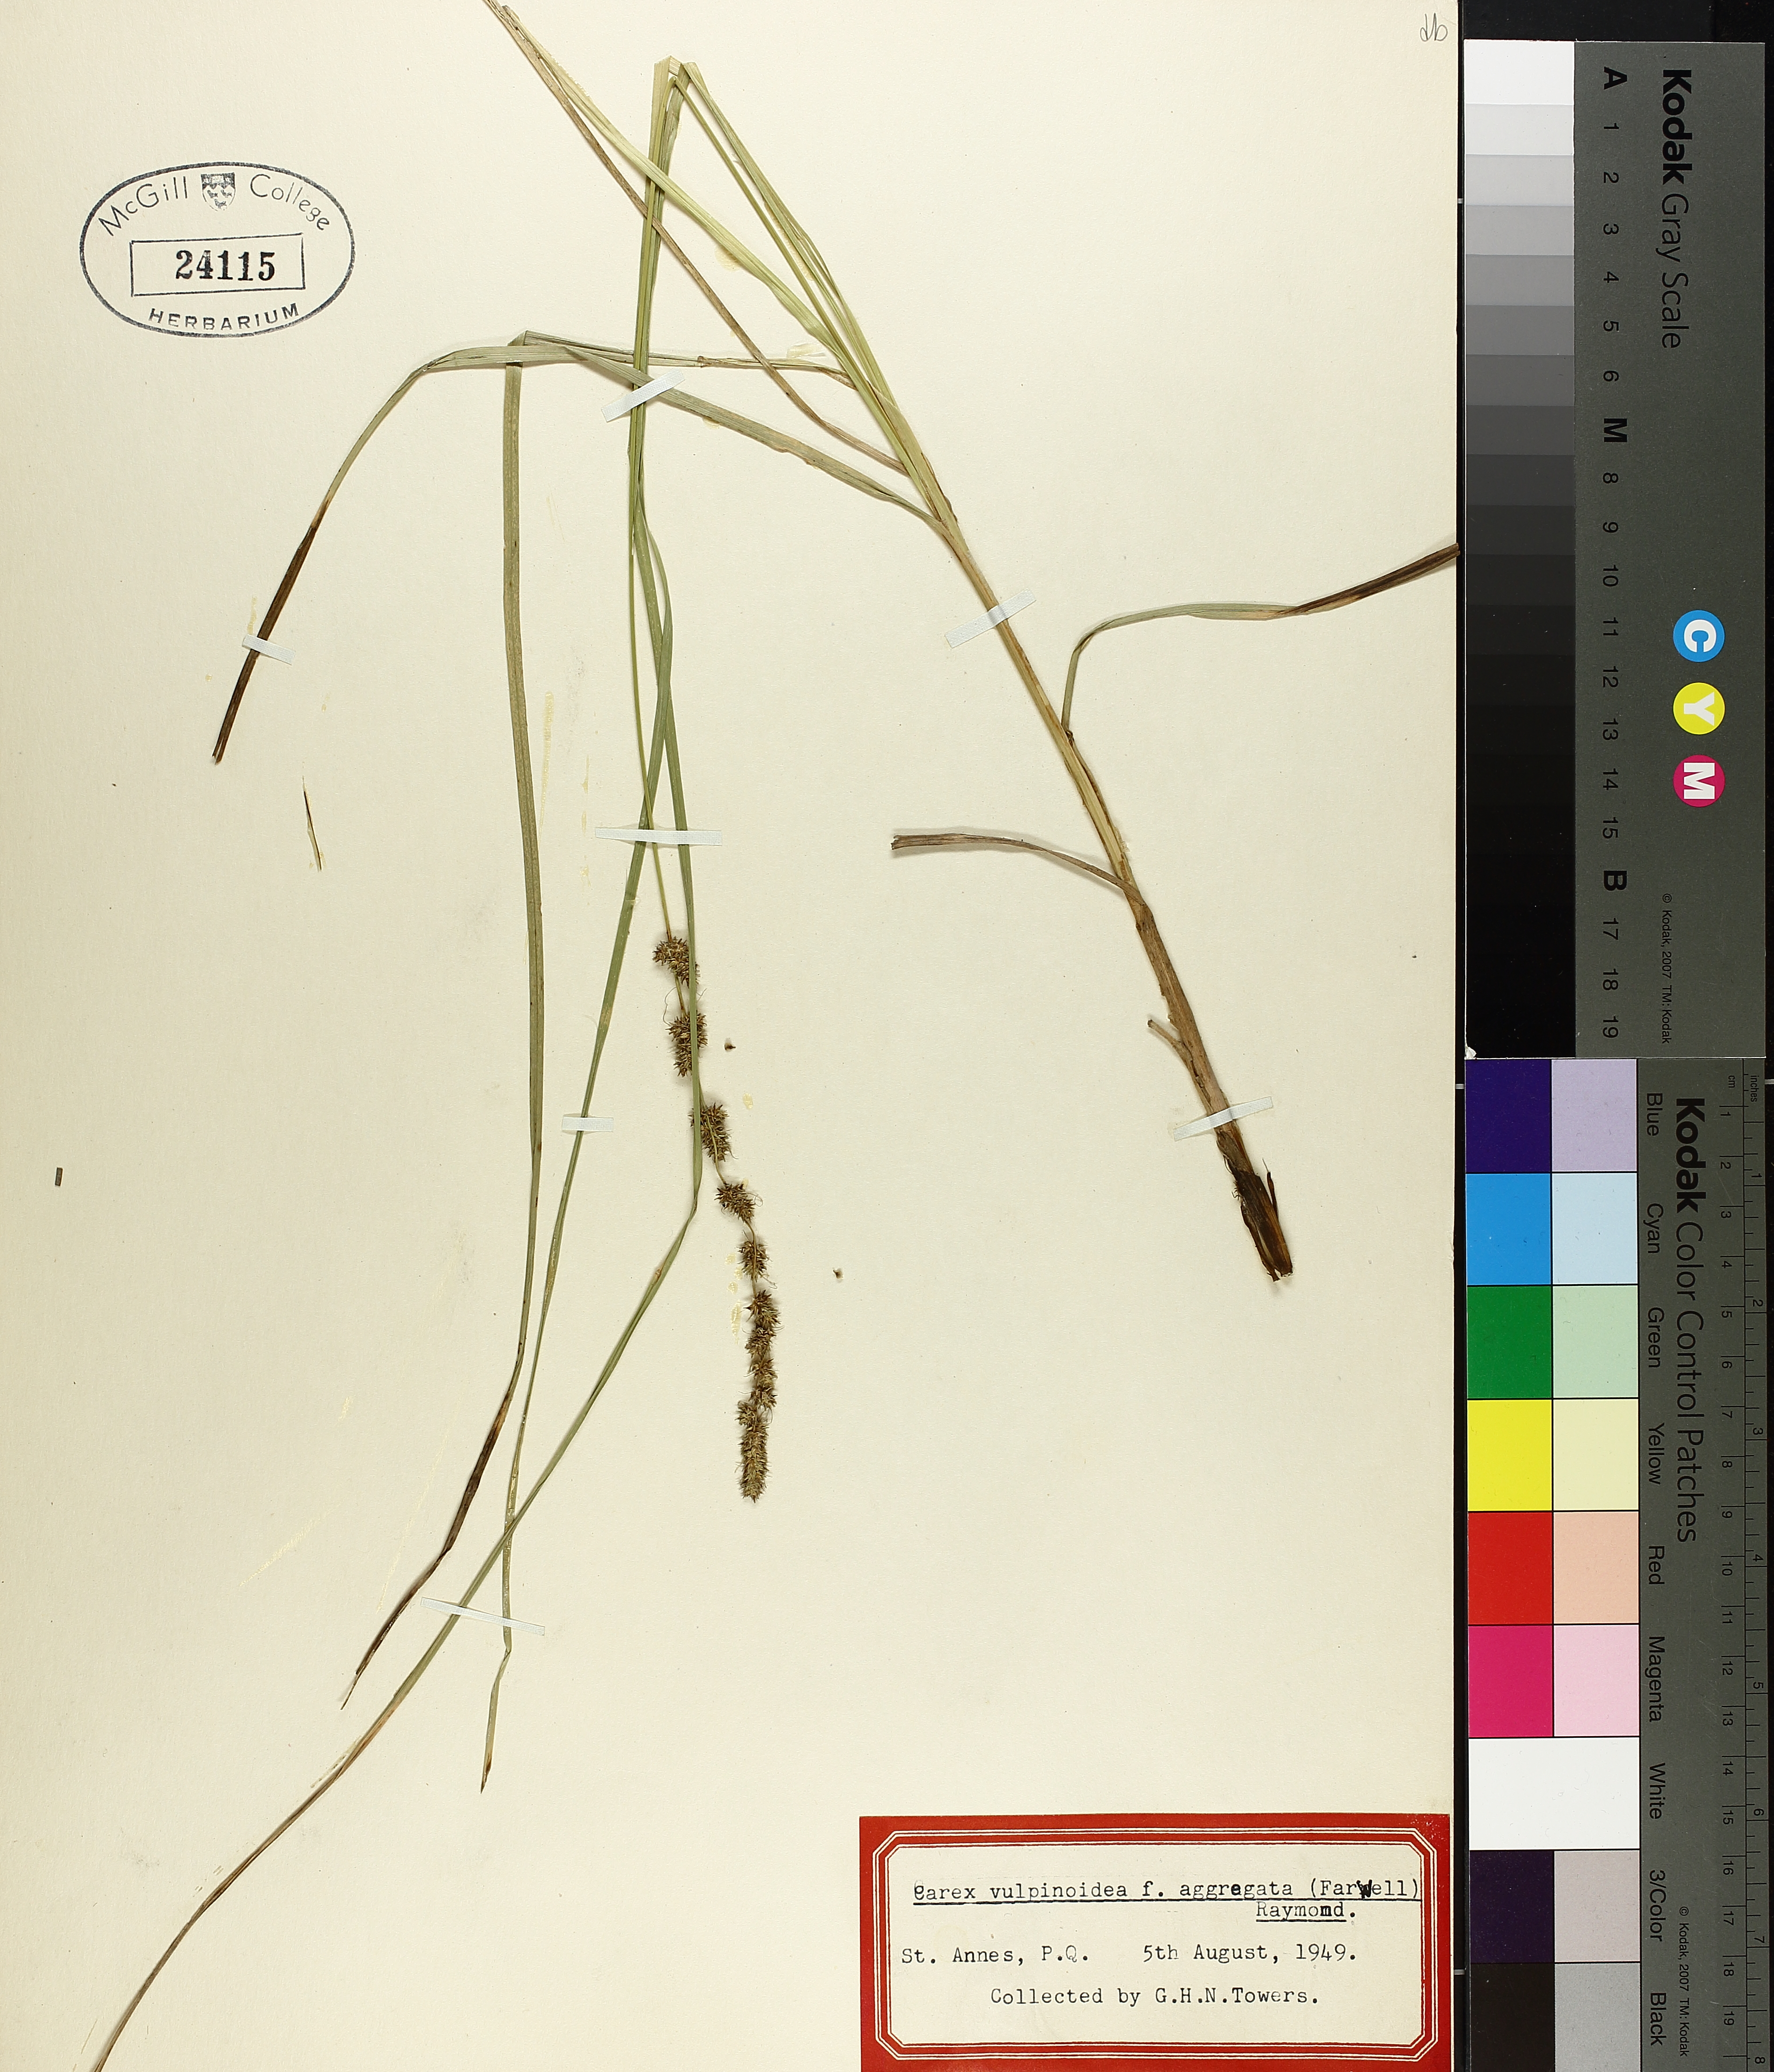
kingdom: Plantae
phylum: Tracheophyta
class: Liliopsida
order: Poales
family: Cyperaceae
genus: Carex
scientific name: Carex vulpinoidea
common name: American fox-sedge
